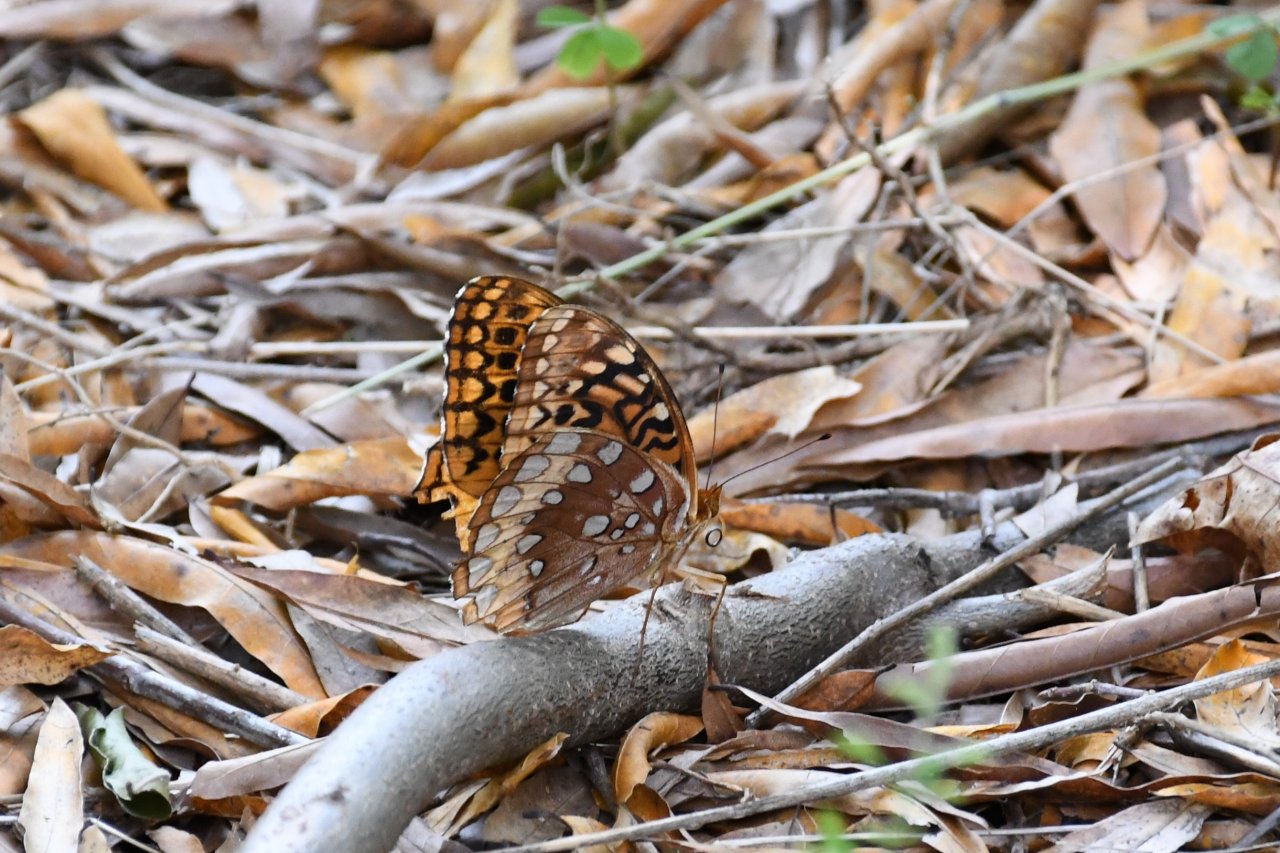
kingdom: Animalia
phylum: Arthropoda
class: Insecta
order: Lepidoptera
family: Nymphalidae
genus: Speyeria
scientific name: Speyeria cybele
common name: Great Spangled Fritillary
